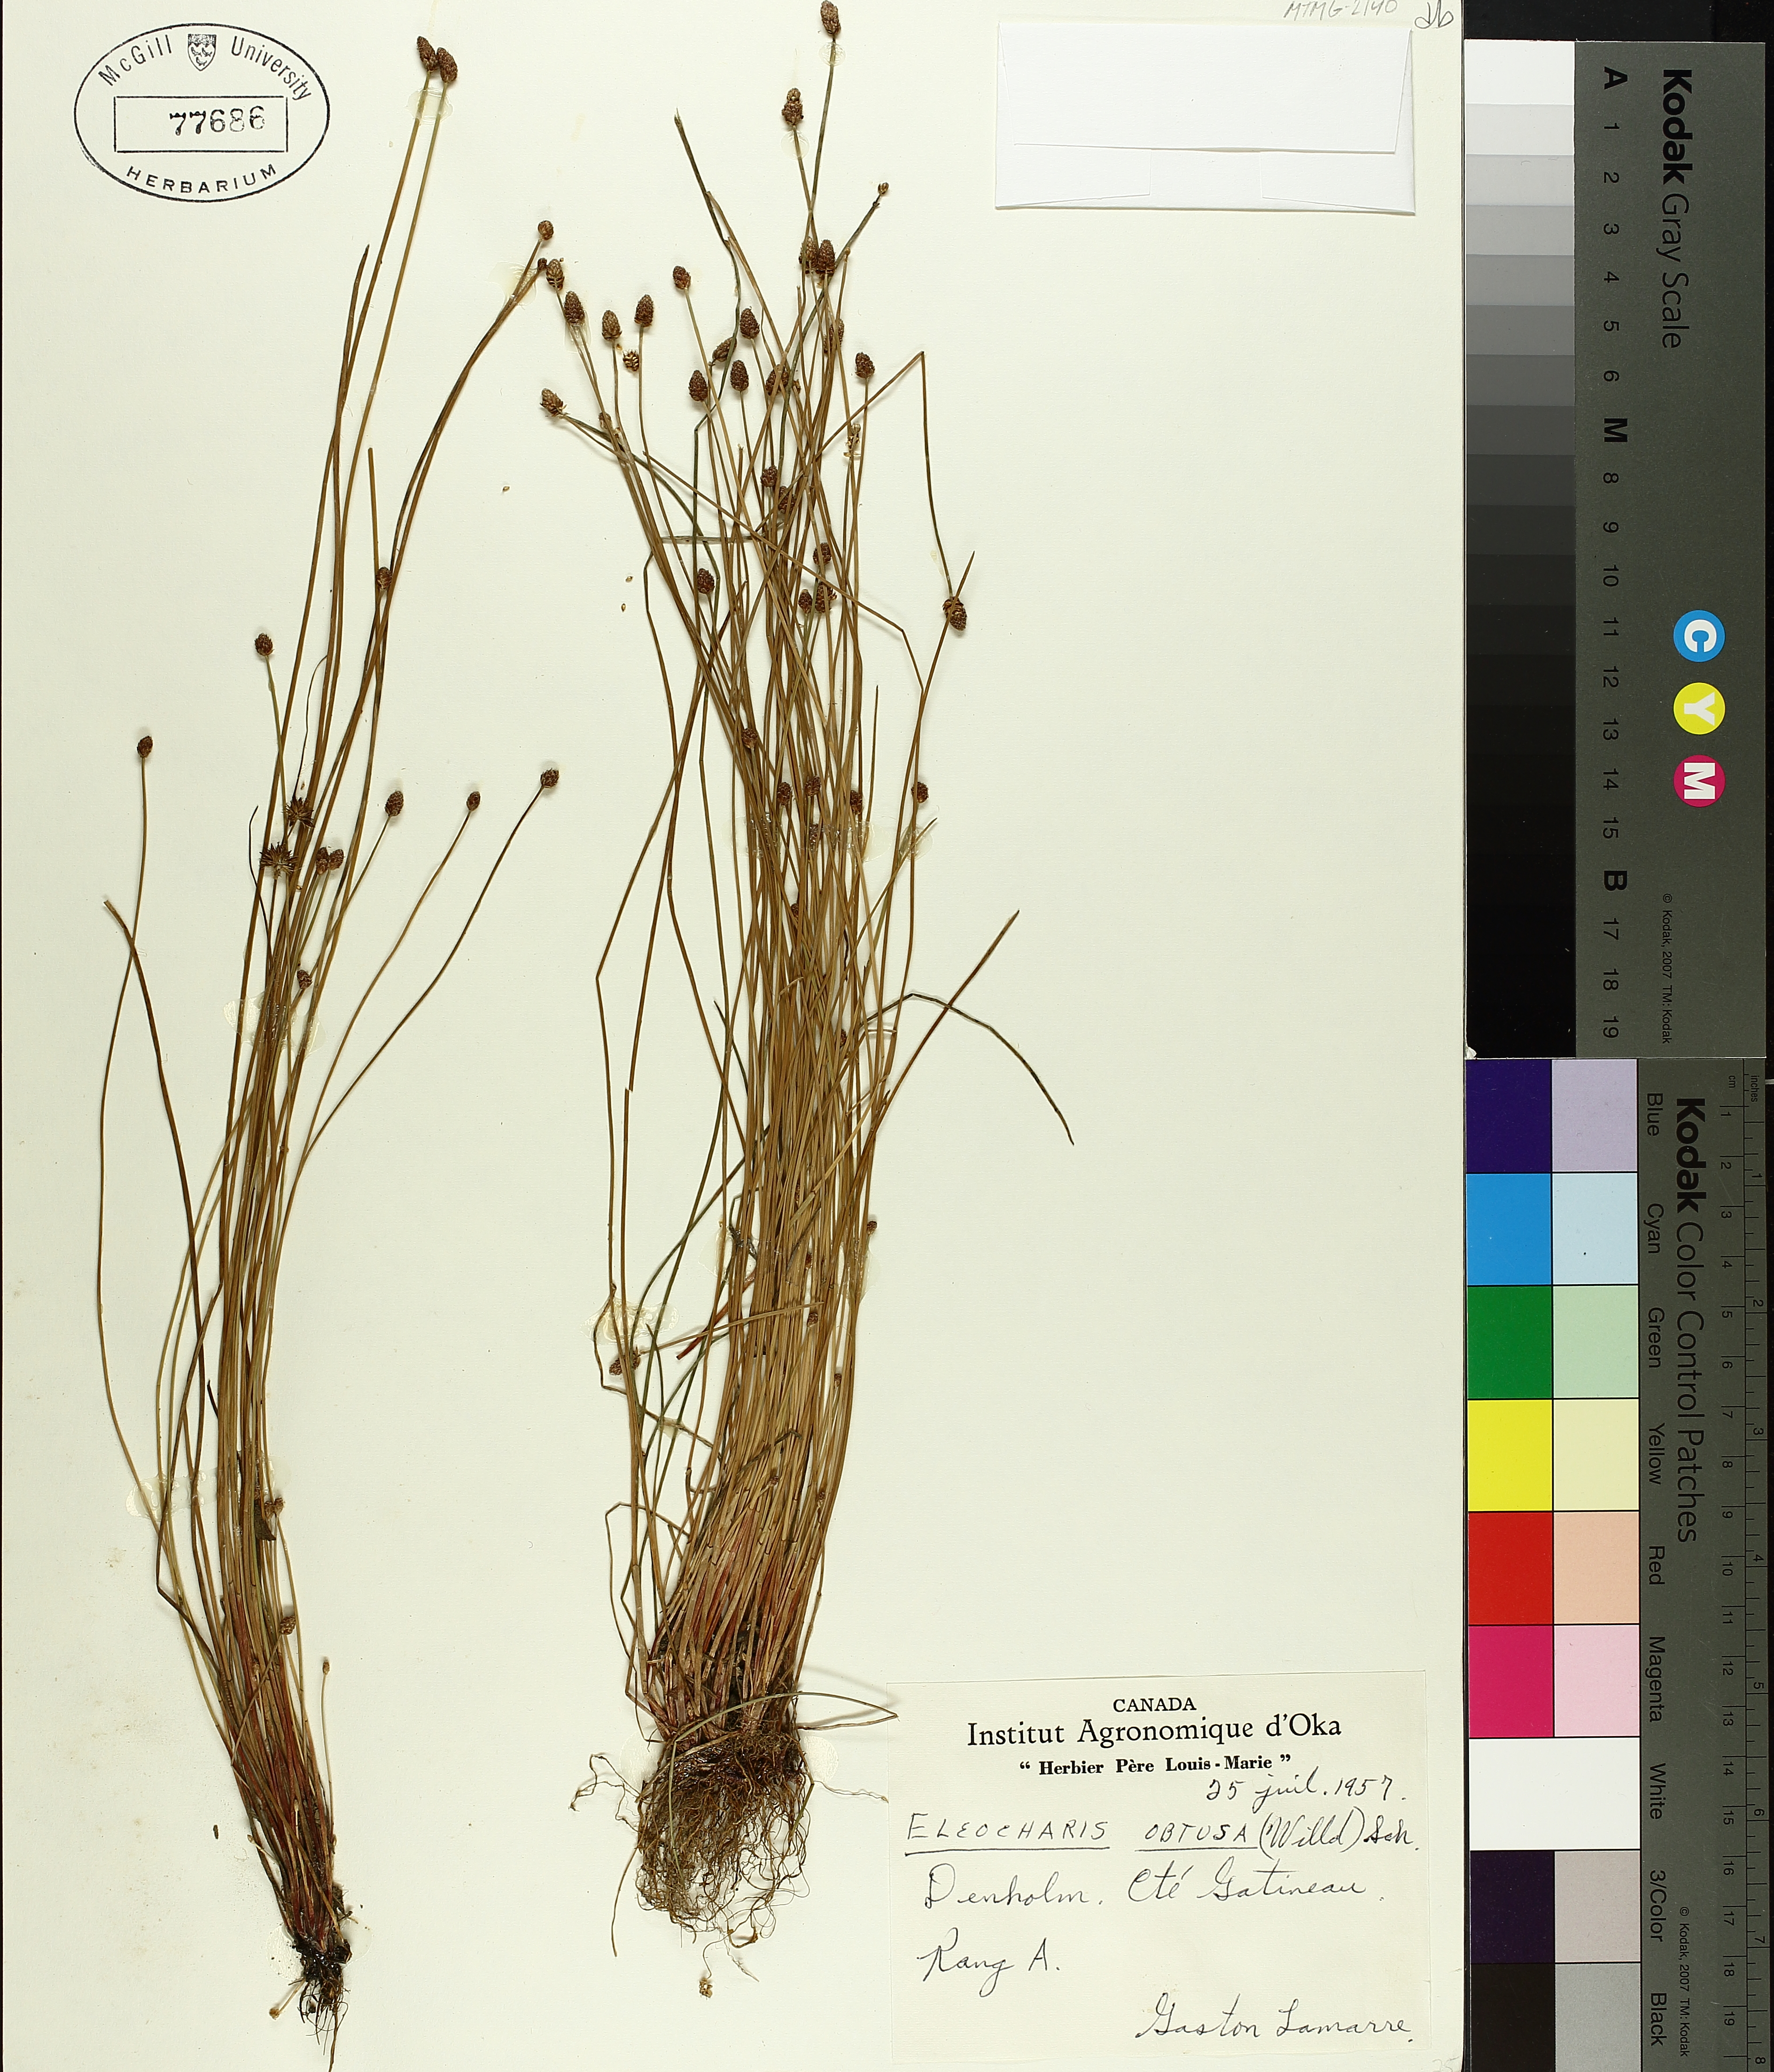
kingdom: Plantae
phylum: Tracheophyta
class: Liliopsida
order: Poales
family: Cyperaceae
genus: Eleocharis
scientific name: Eleocharis obtusa
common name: Blunt spikerush
